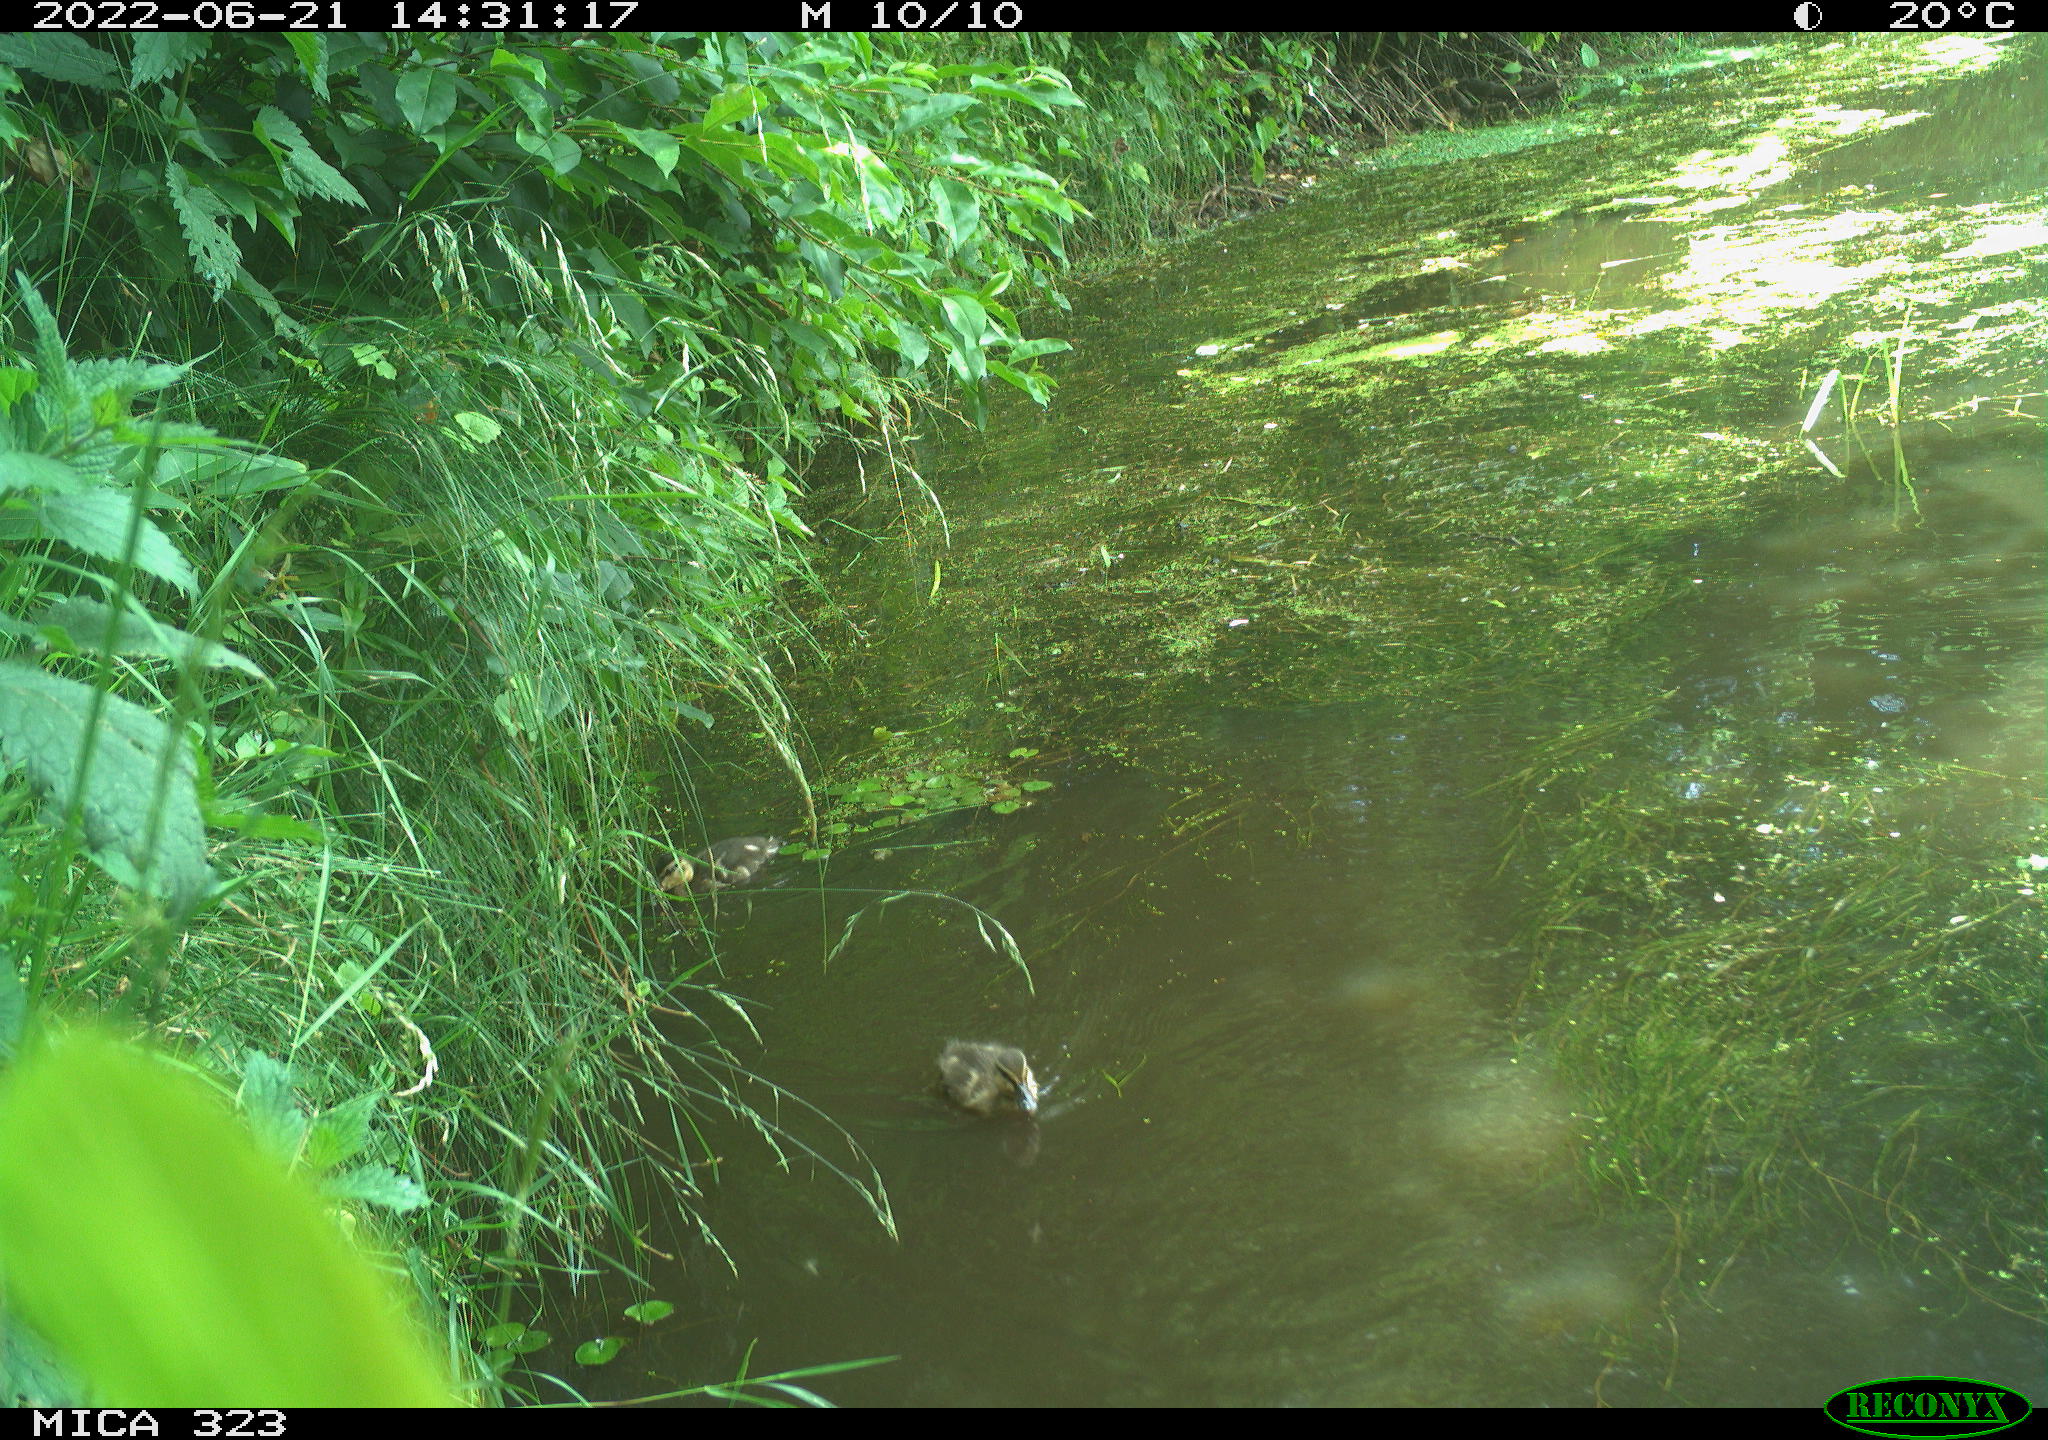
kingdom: Animalia
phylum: Chordata
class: Aves
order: Anseriformes
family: Anatidae
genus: Anas
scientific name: Anas platyrhynchos
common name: Mallard
